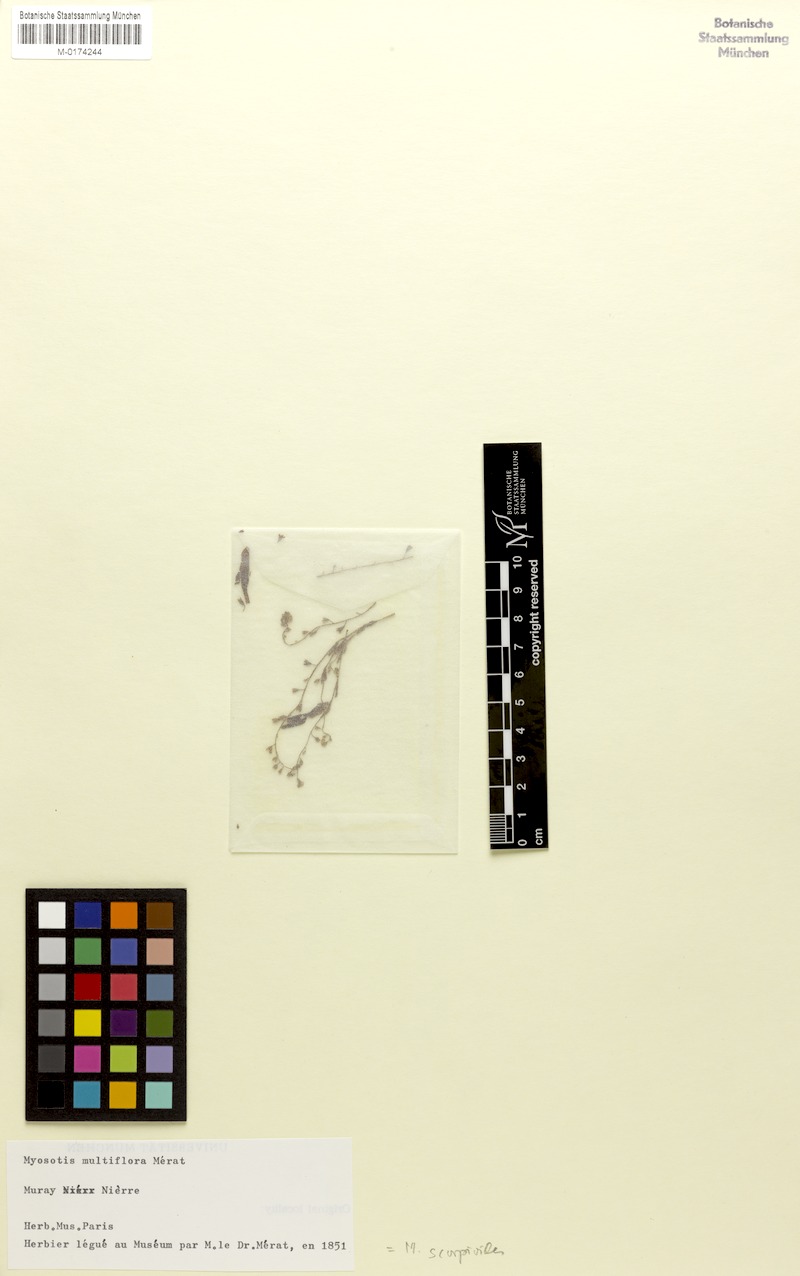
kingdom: Plantae
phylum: Tracheophyta
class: Magnoliopsida
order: Boraginales
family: Boraginaceae
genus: Myosotis
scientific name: Myosotis laxa
